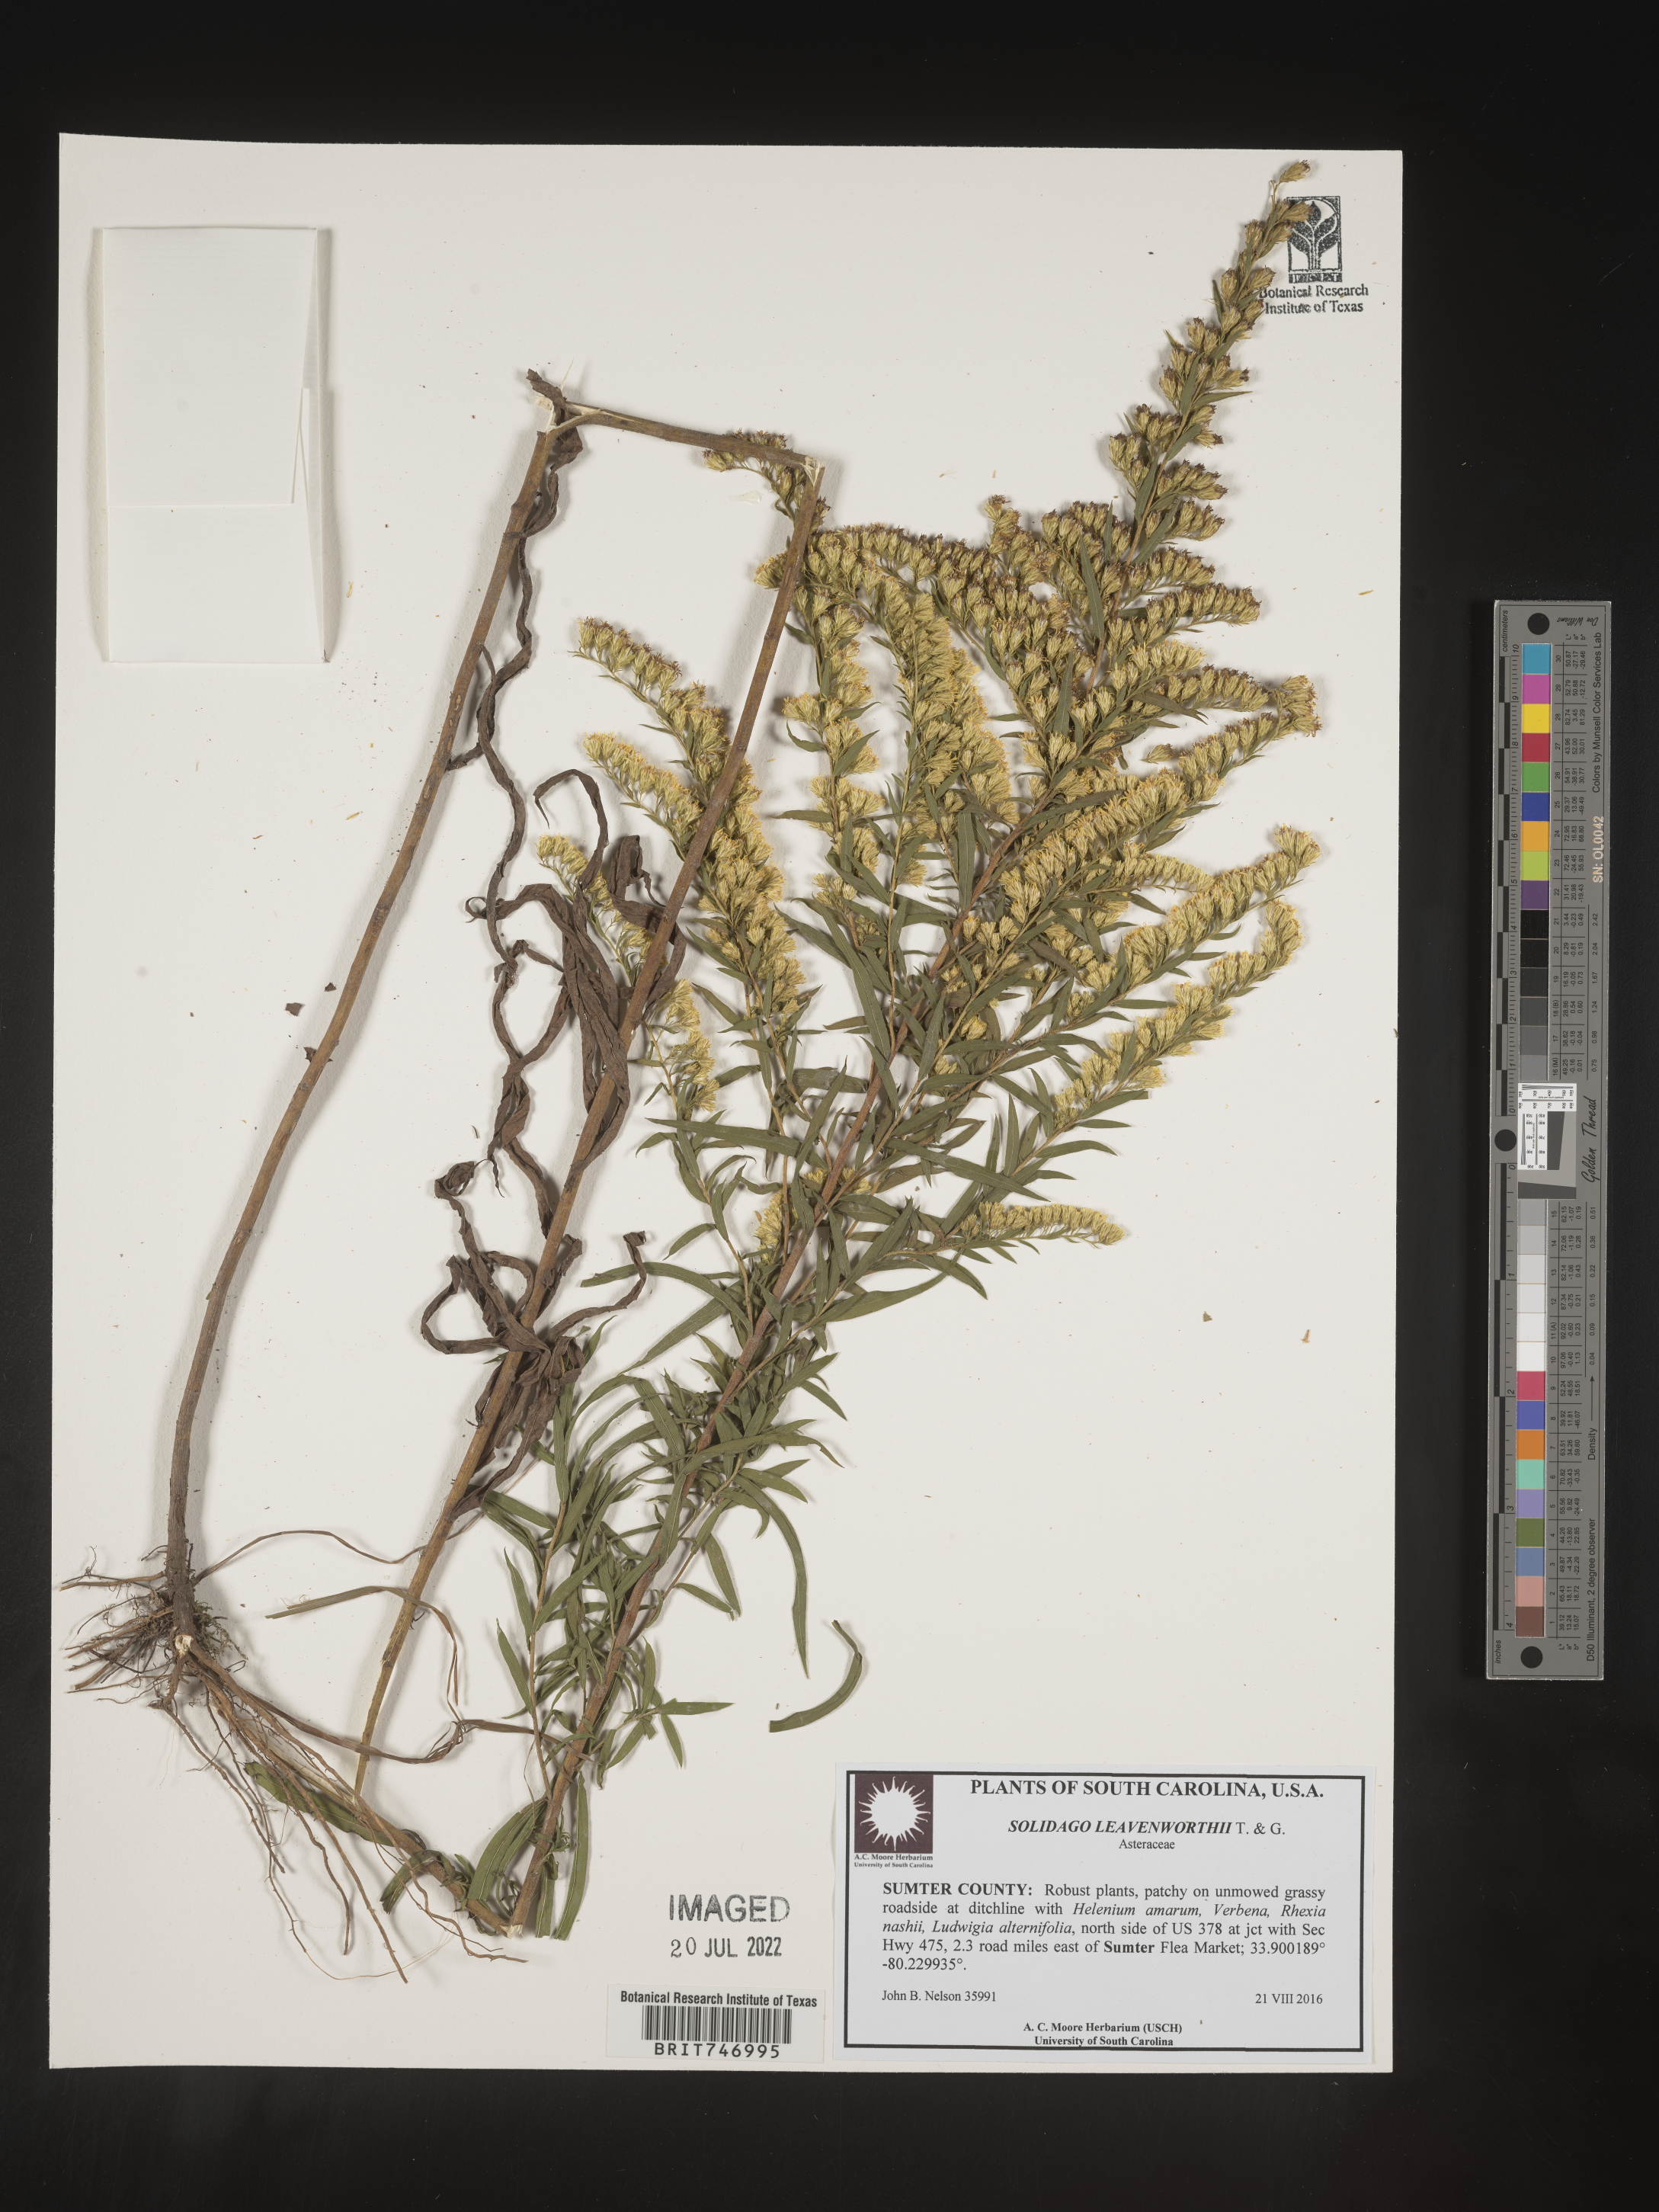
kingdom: Plantae
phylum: Tracheophyta
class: Magnoliopsida
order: Asterales
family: Asteraceae
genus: Solidago
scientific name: Solidago leavenworthii
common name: Leavenworth's goldenrod
